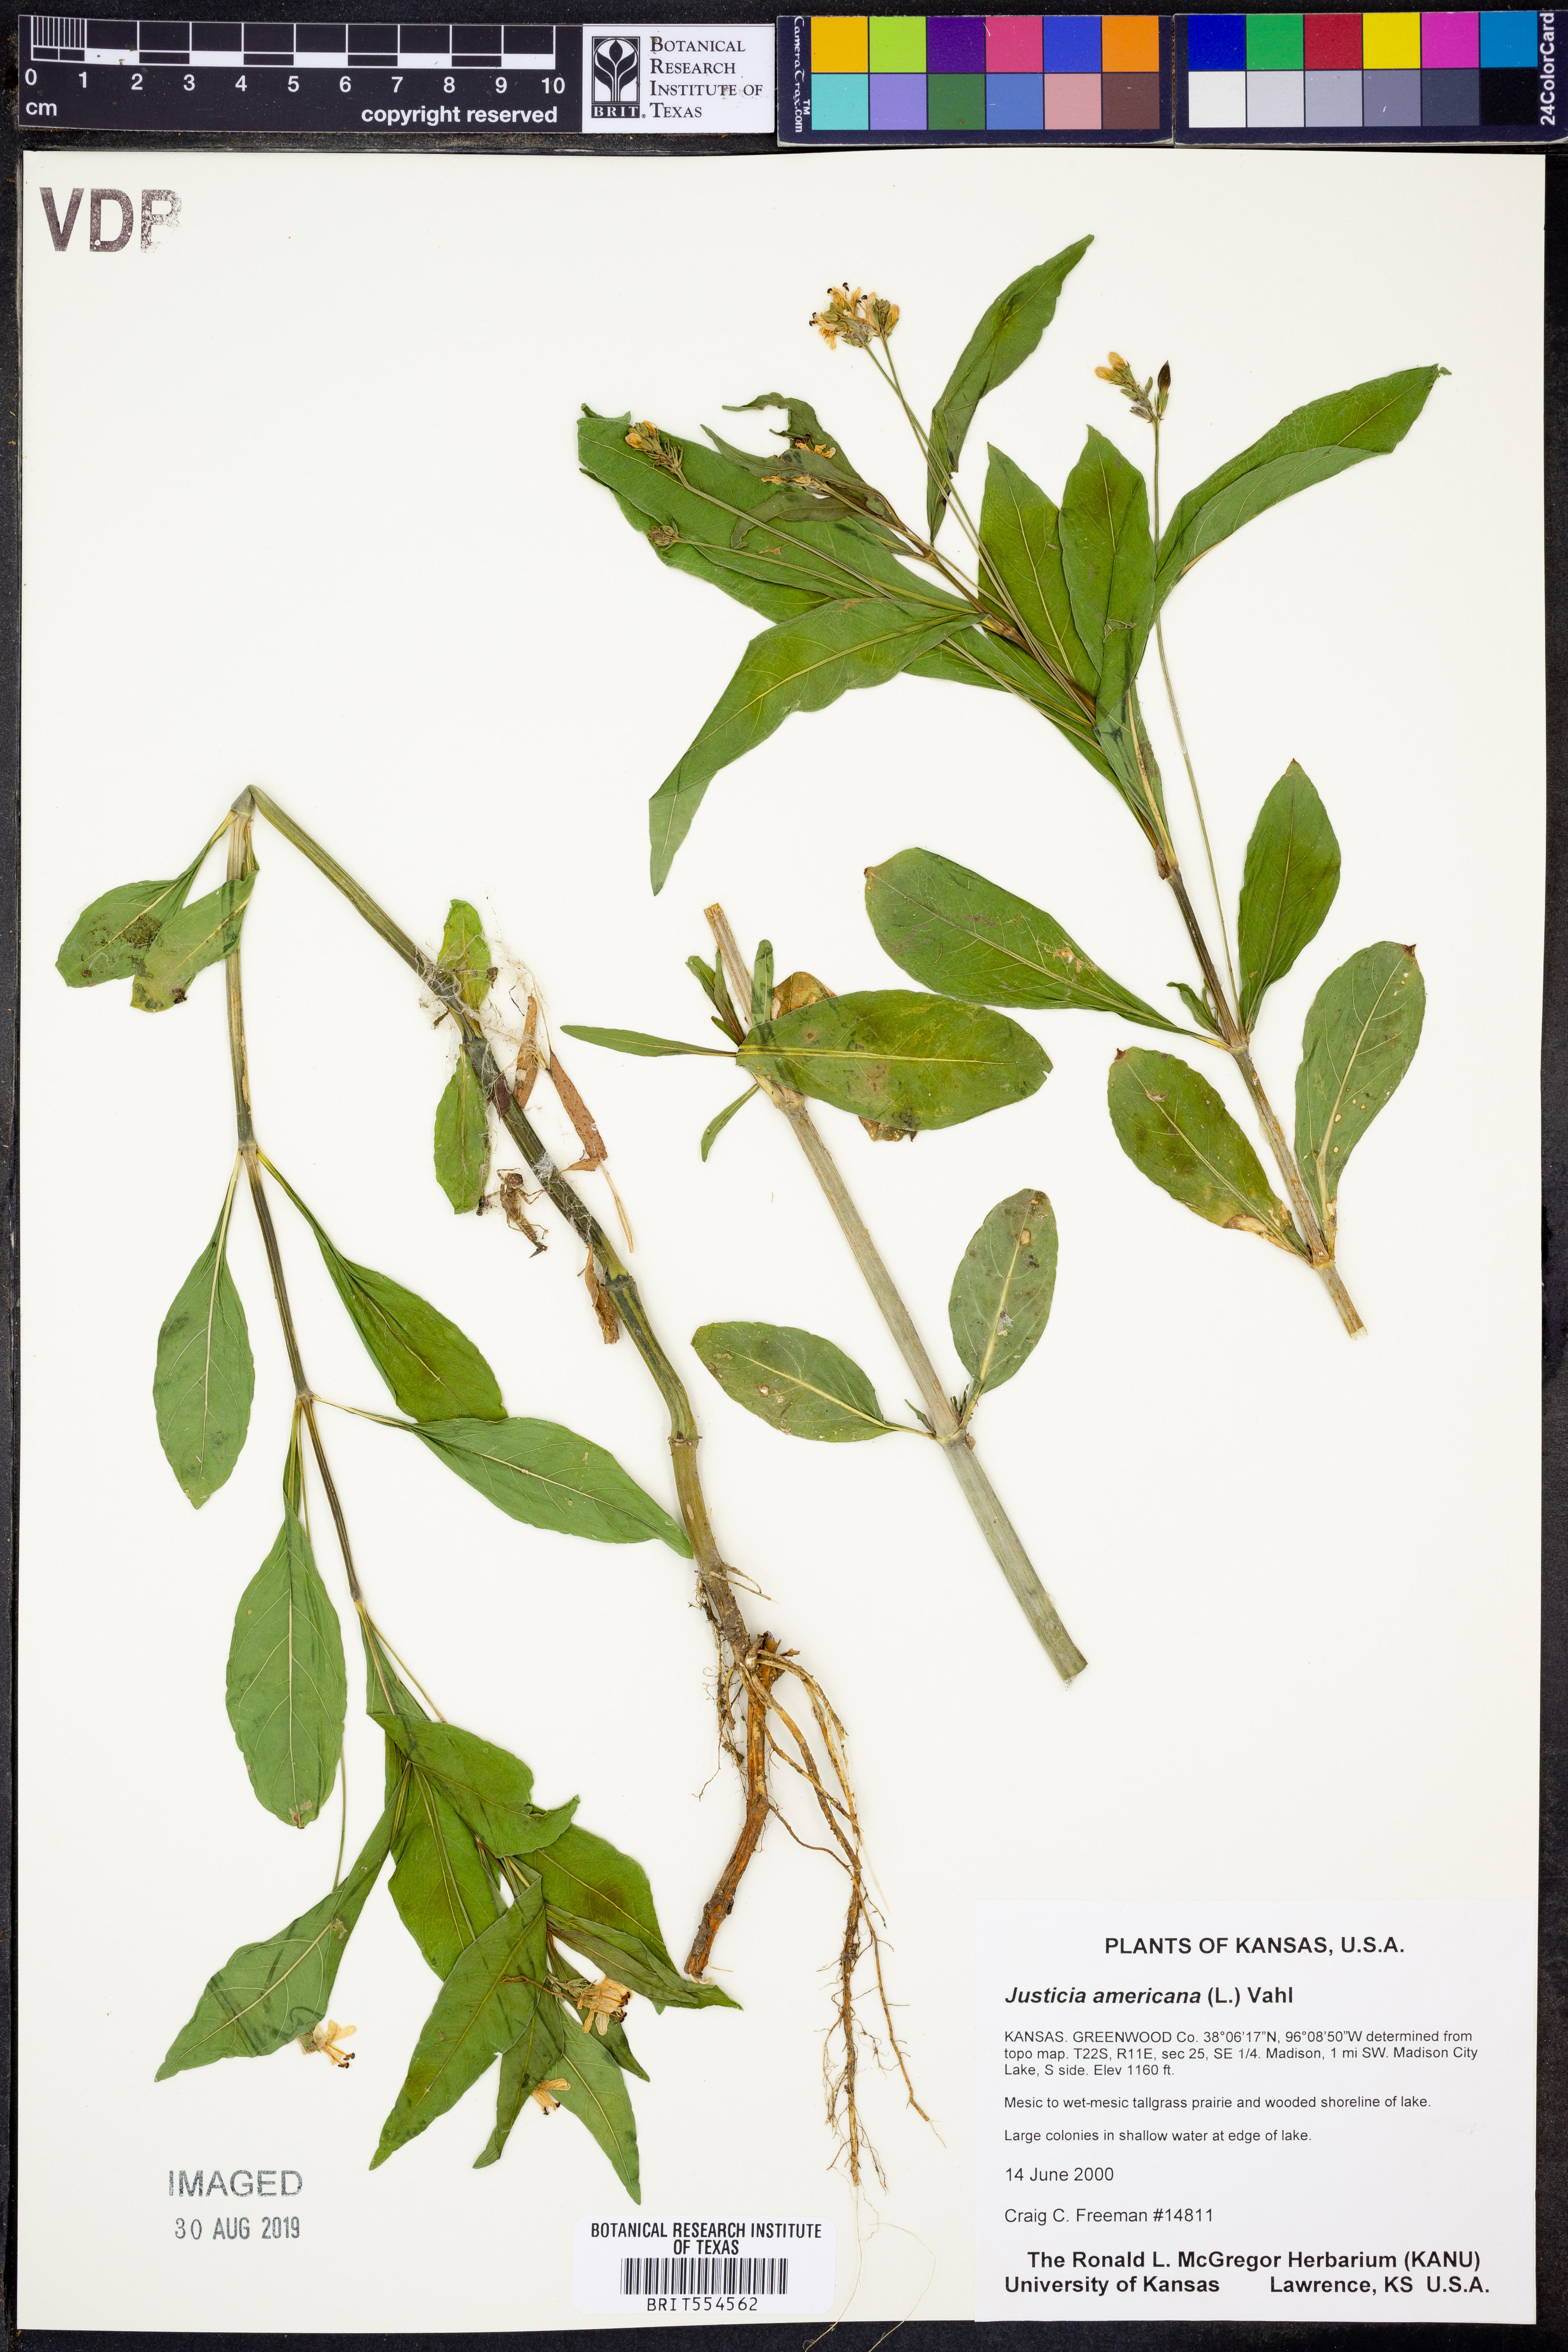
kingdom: Plantae
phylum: Tracheophyta
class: Magnoliopsida
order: Lamiales
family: Acanthaceae
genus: Dianthera
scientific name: Dianthera americana
